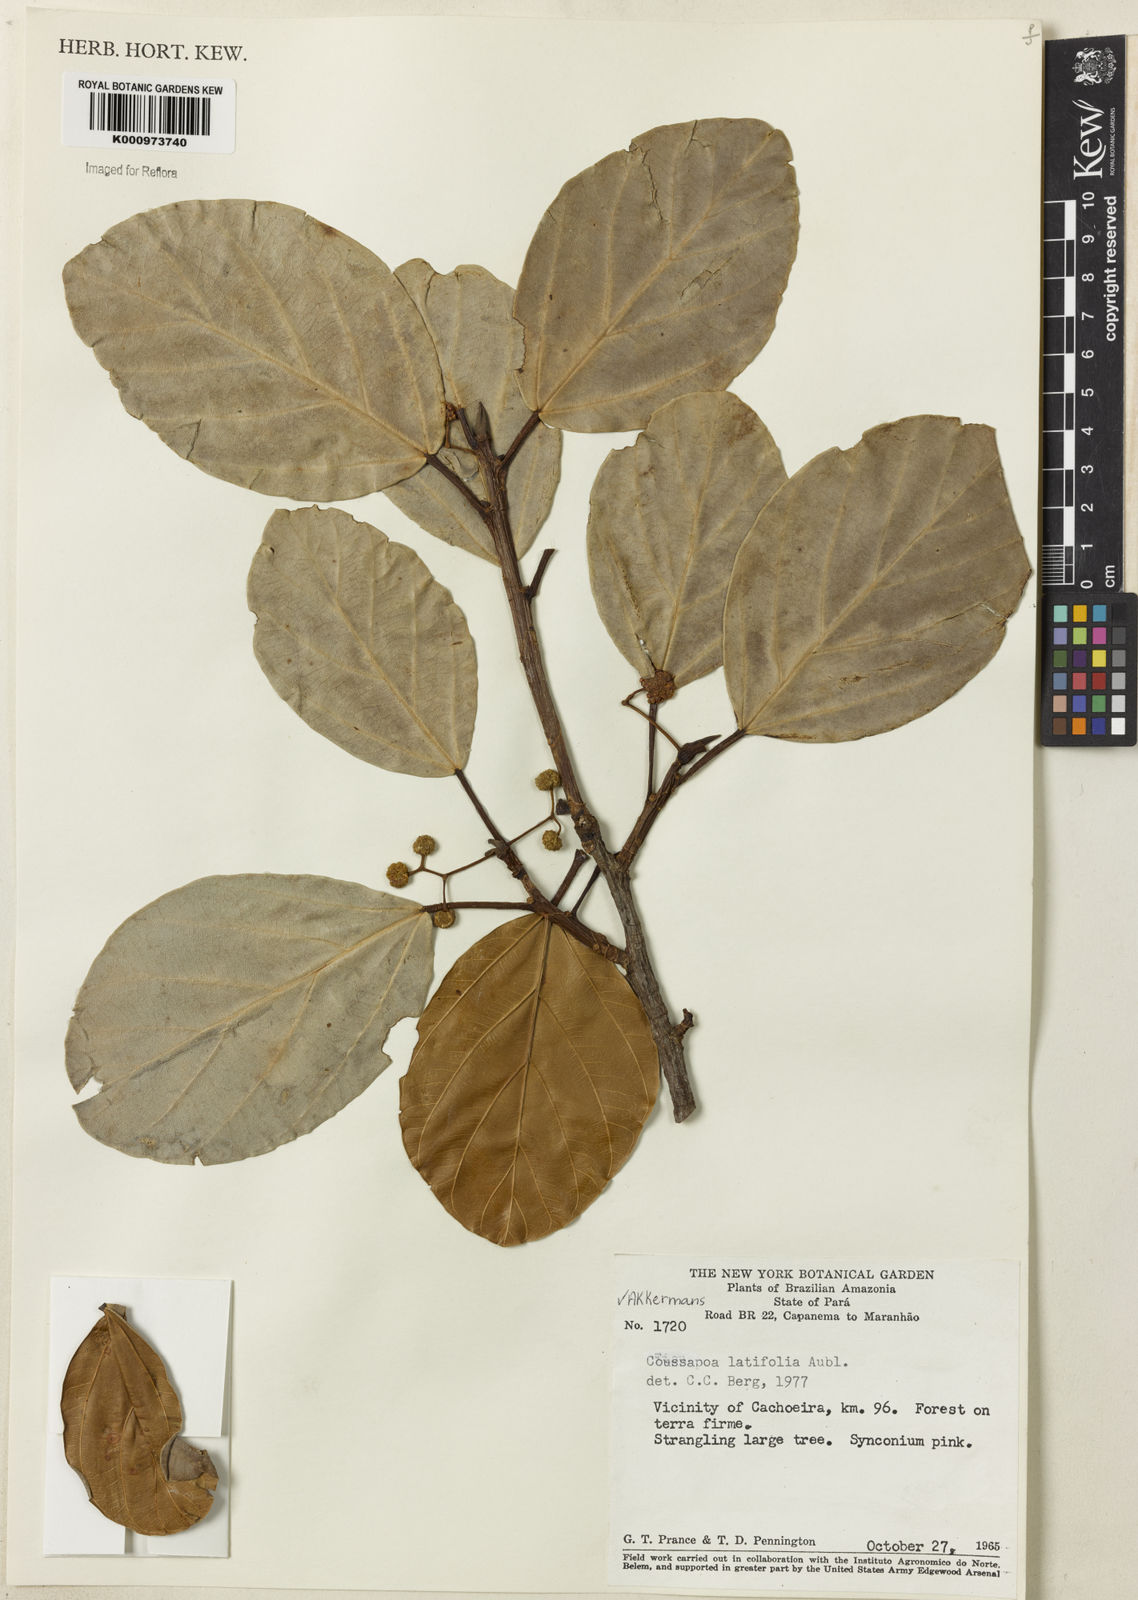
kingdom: Plantae
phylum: Tracheophyta
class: Magnoliopsida
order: Rosales
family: Urticaceae
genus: Coussapoa
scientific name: Coussapoa
